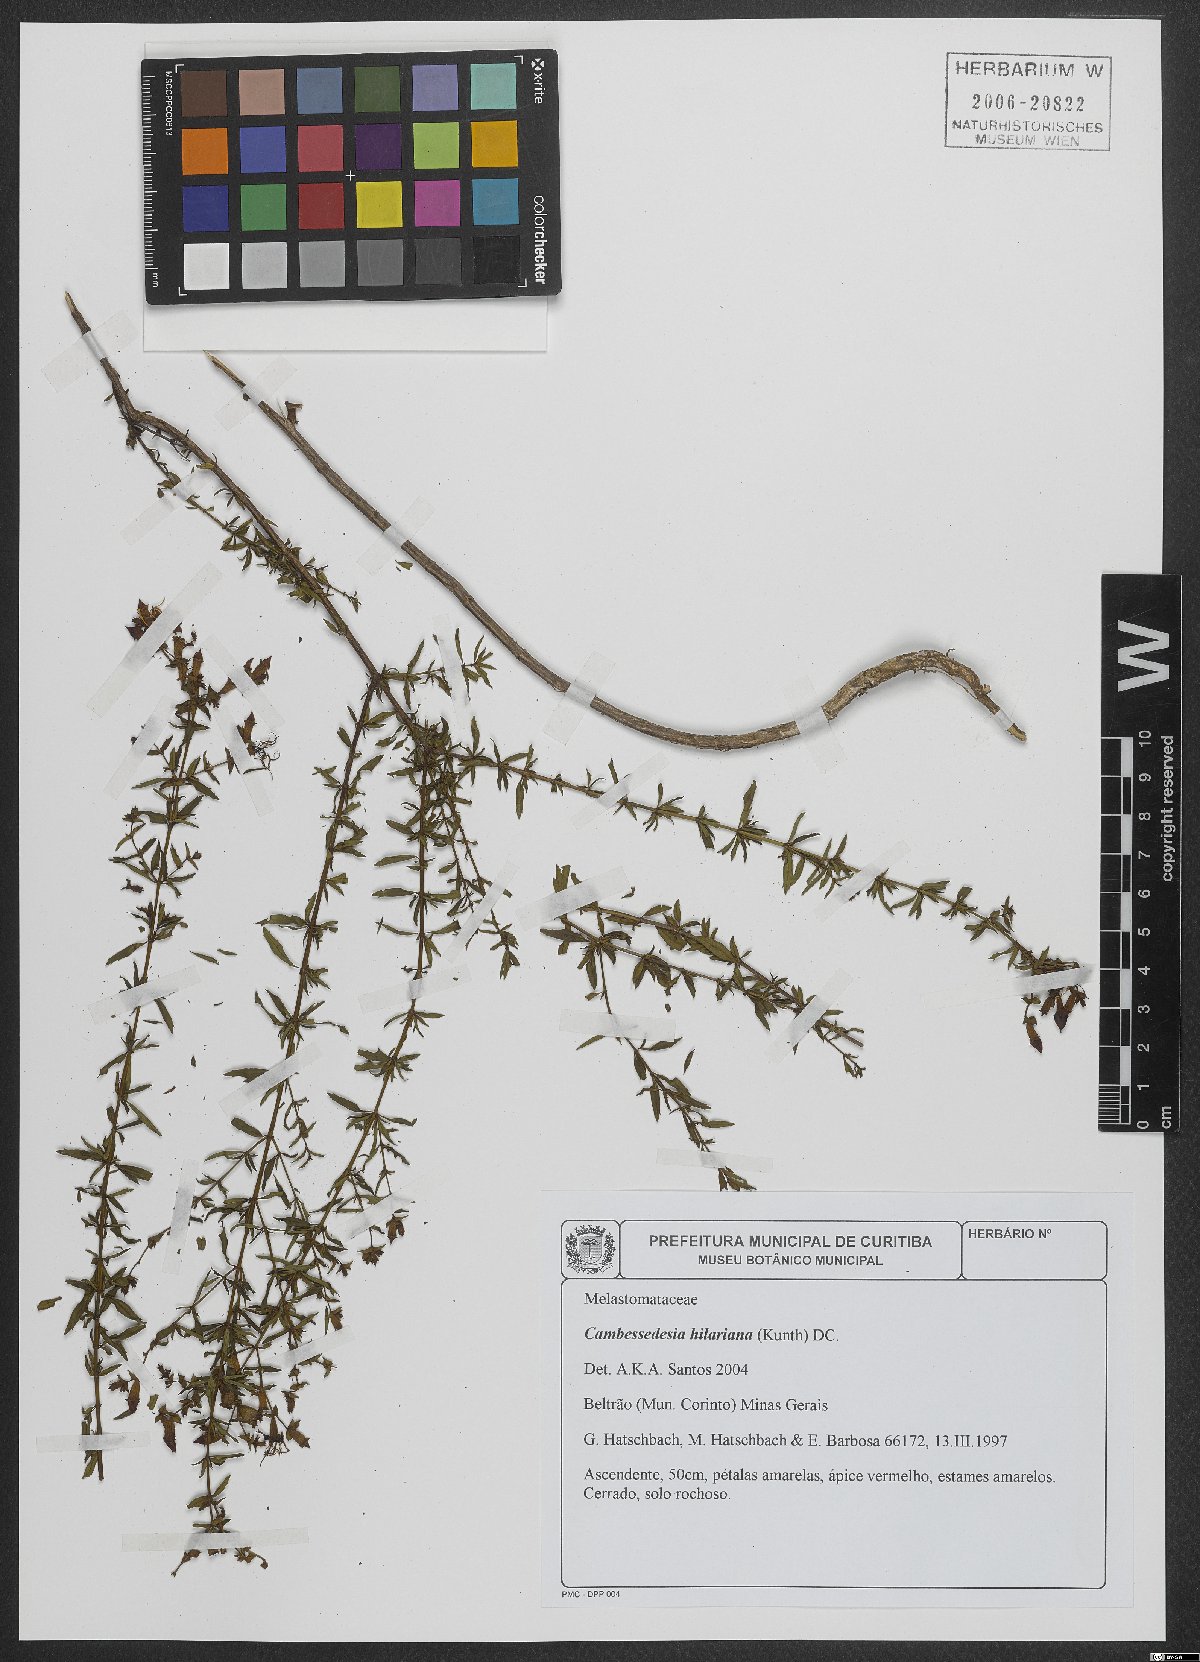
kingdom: Plantae
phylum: Tracheophyta
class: Magnoliopsida
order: Myrtales
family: Melastomataceae
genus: Cambessedesia
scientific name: Cambessedesia hilariana
